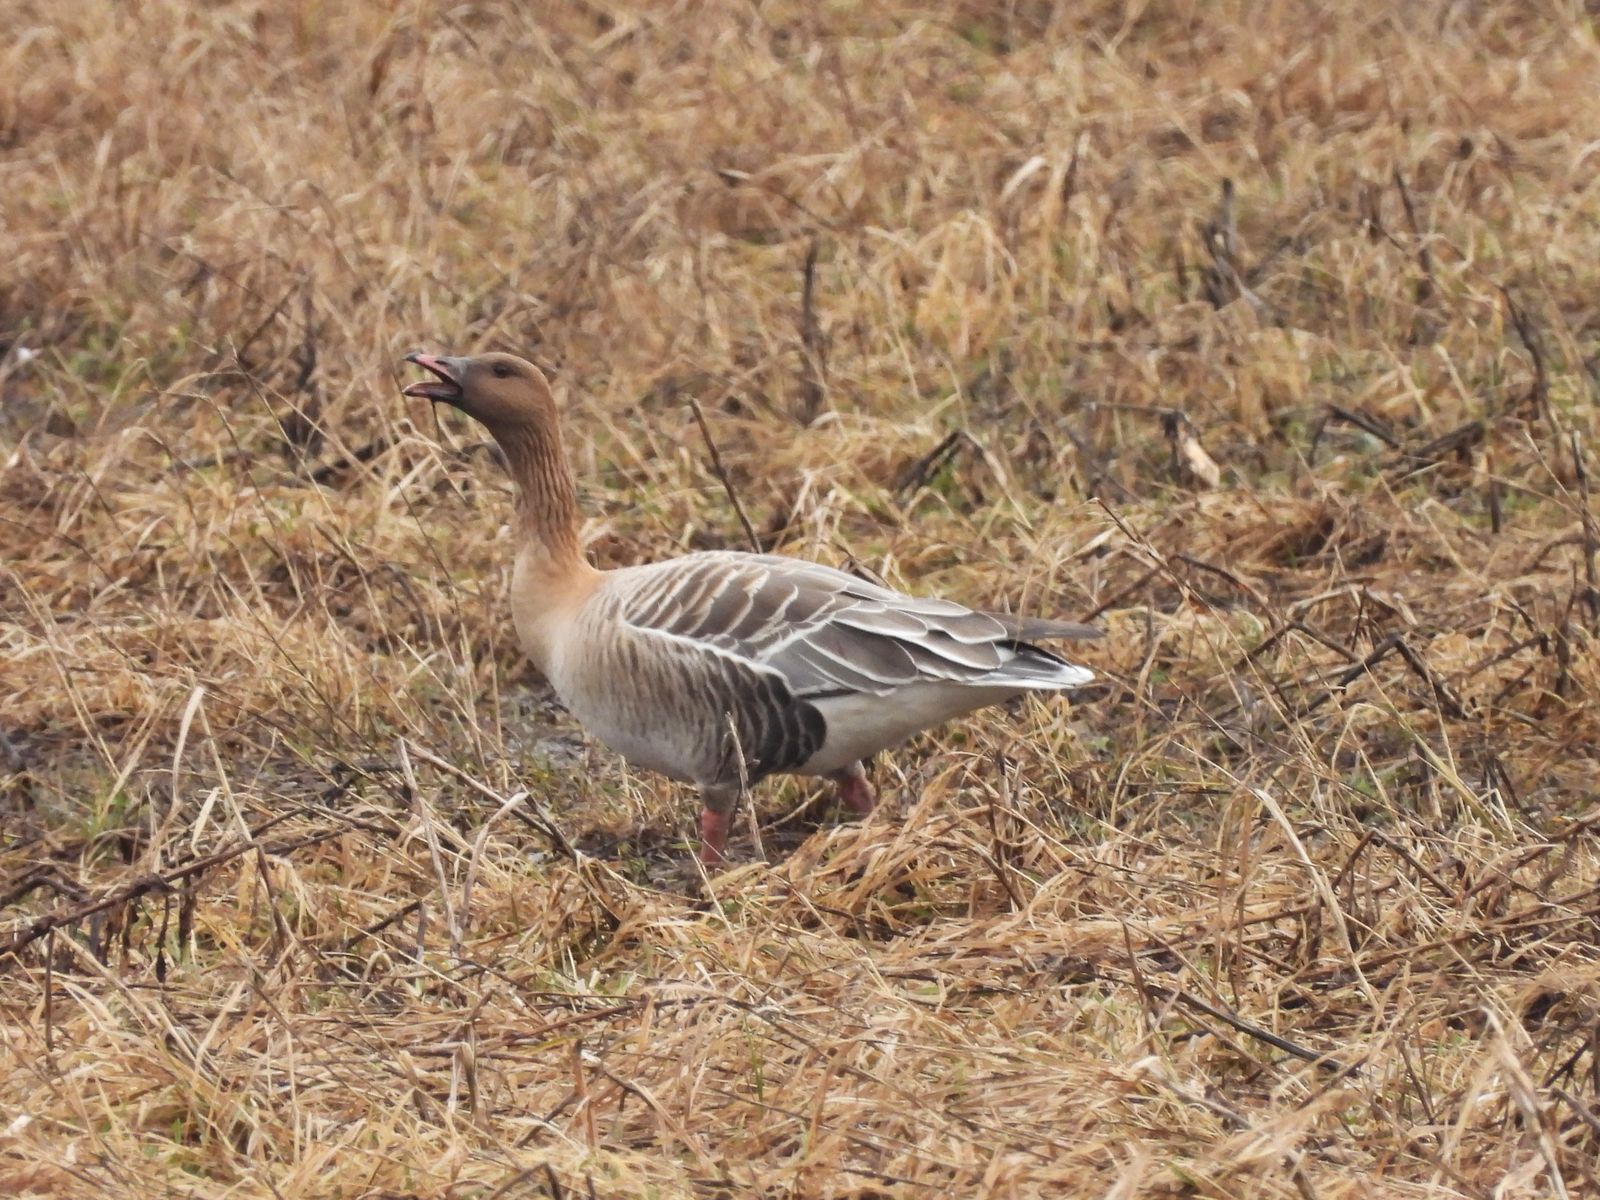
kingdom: Animalia
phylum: Chordata
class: Aves
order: Anseriformes
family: Anatidae
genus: Anser
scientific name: Anser brachyrhynchus
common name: Pink-footed goose
